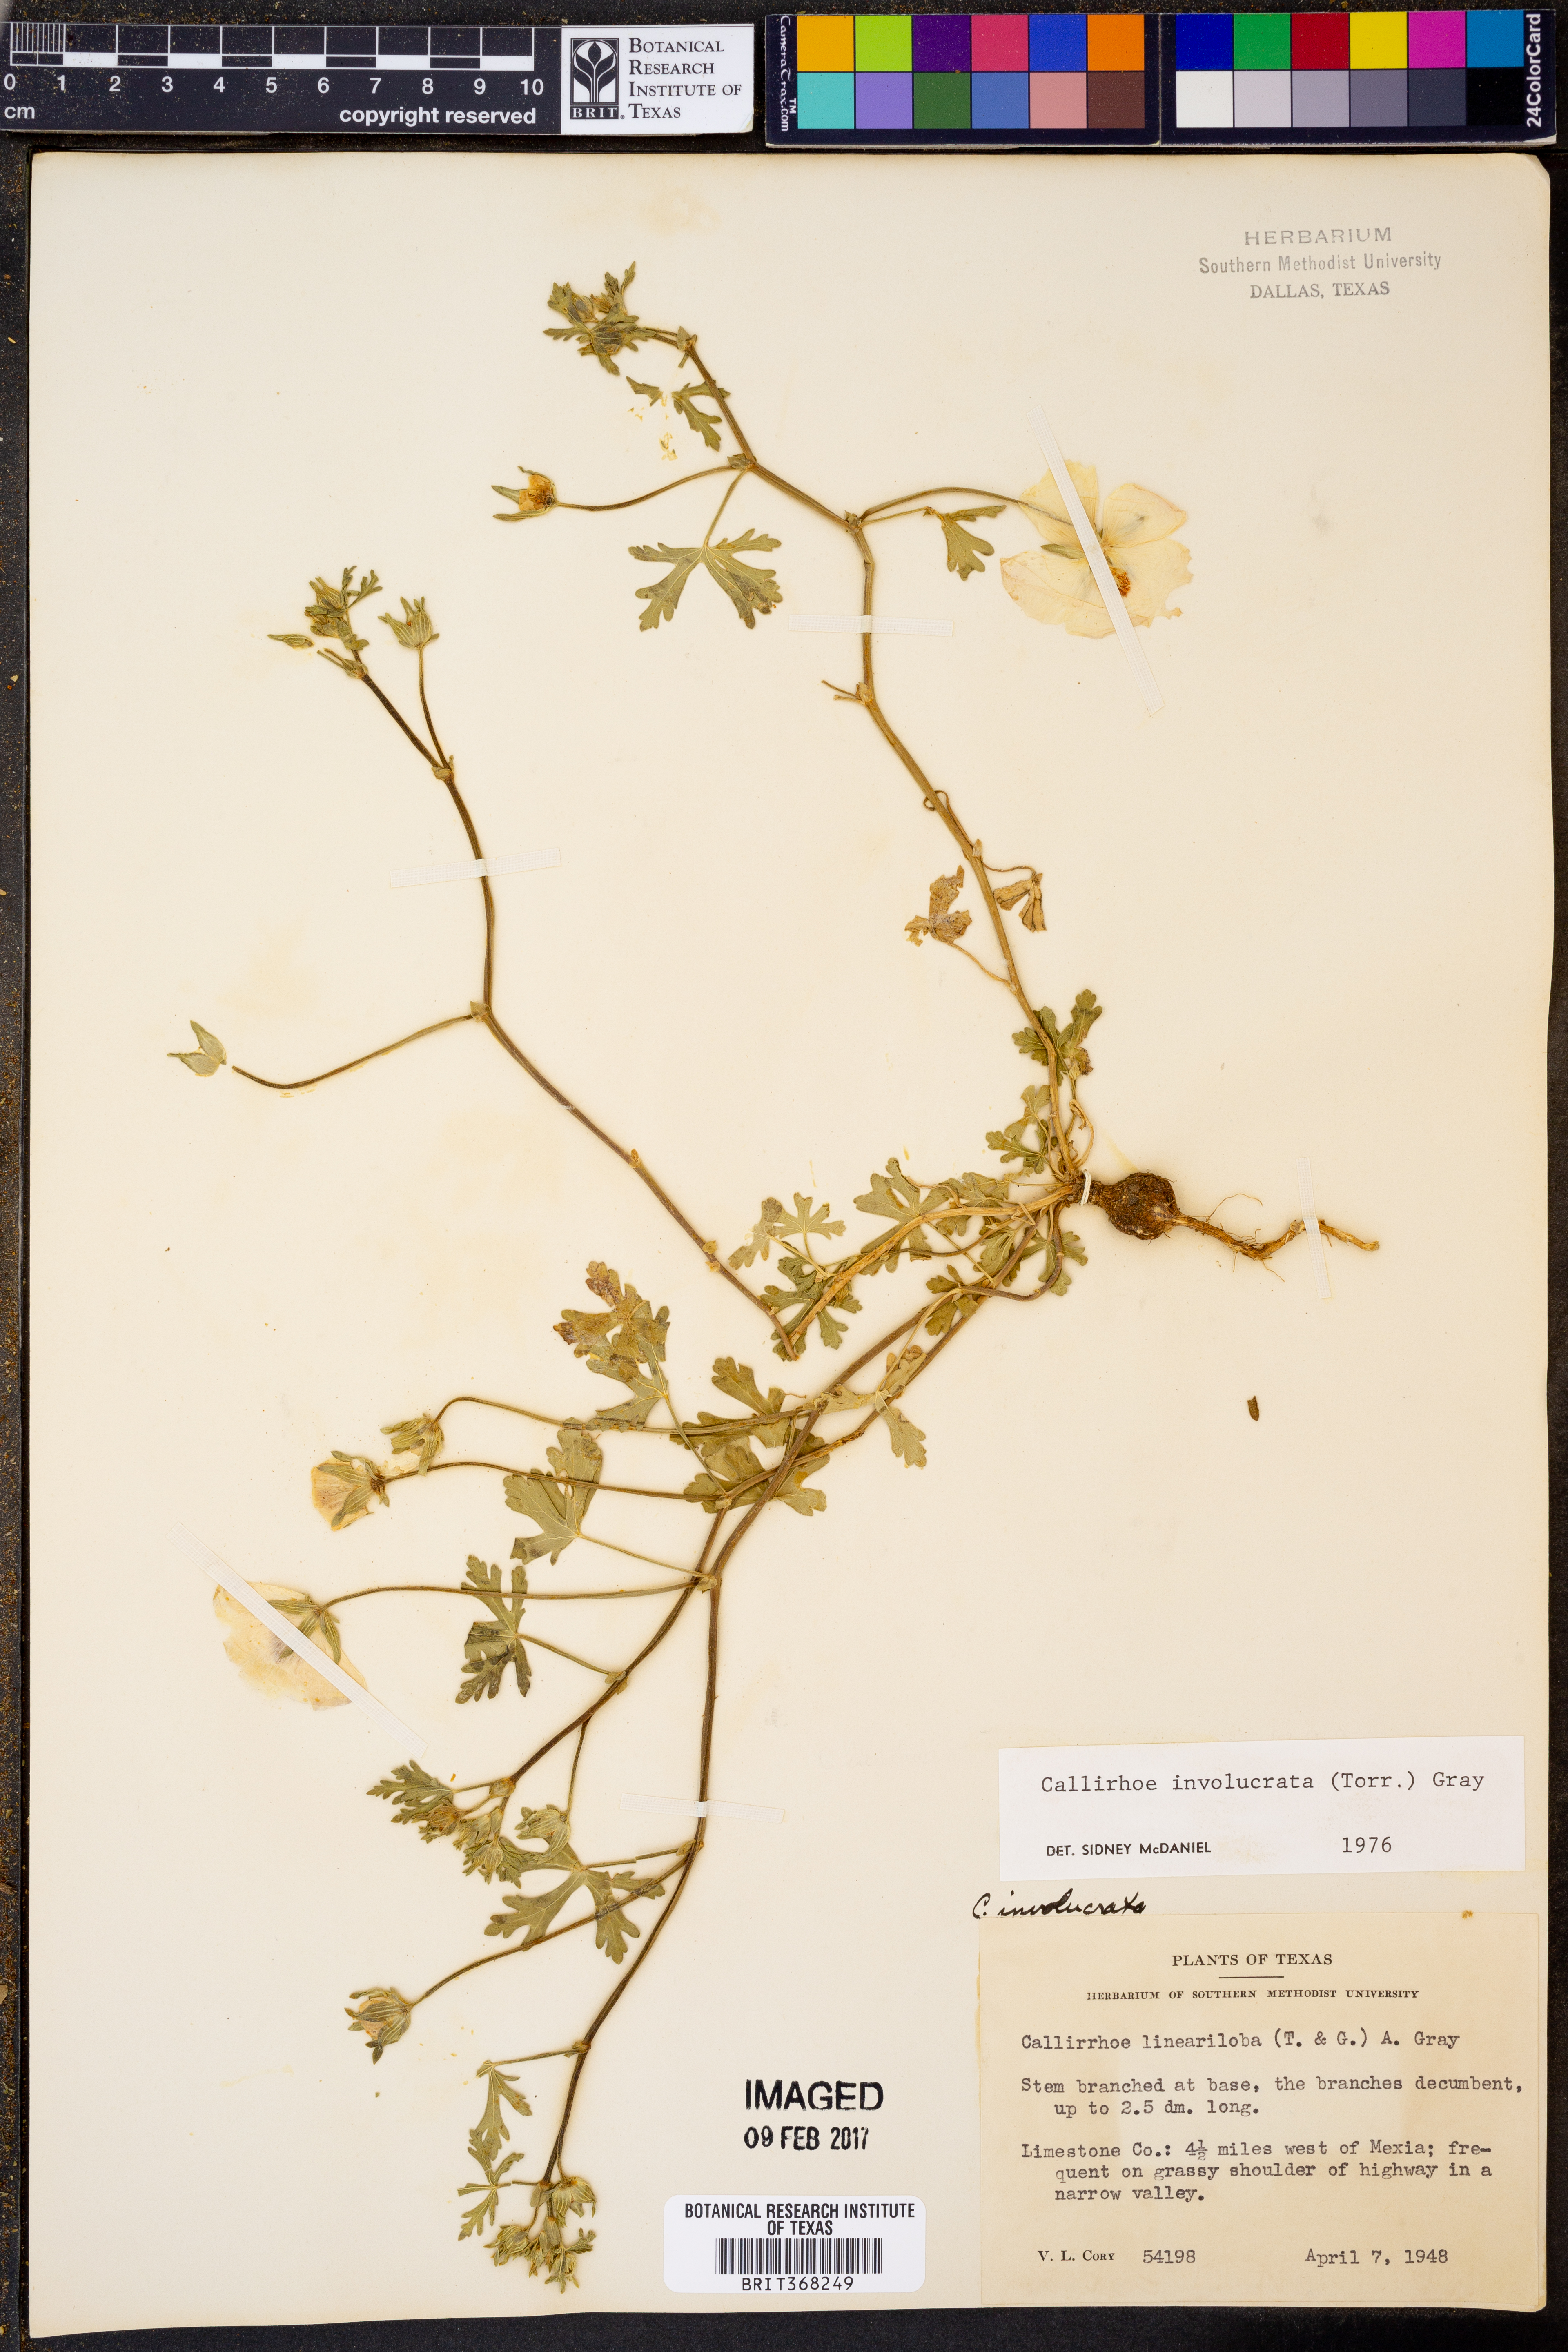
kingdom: Plantae
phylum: Tracheophyta
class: Magnoliopsida
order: Malvales
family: Malvaceae
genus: Callirhoe
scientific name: Callirhoe involucrata
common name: Purple poppy-mallow
